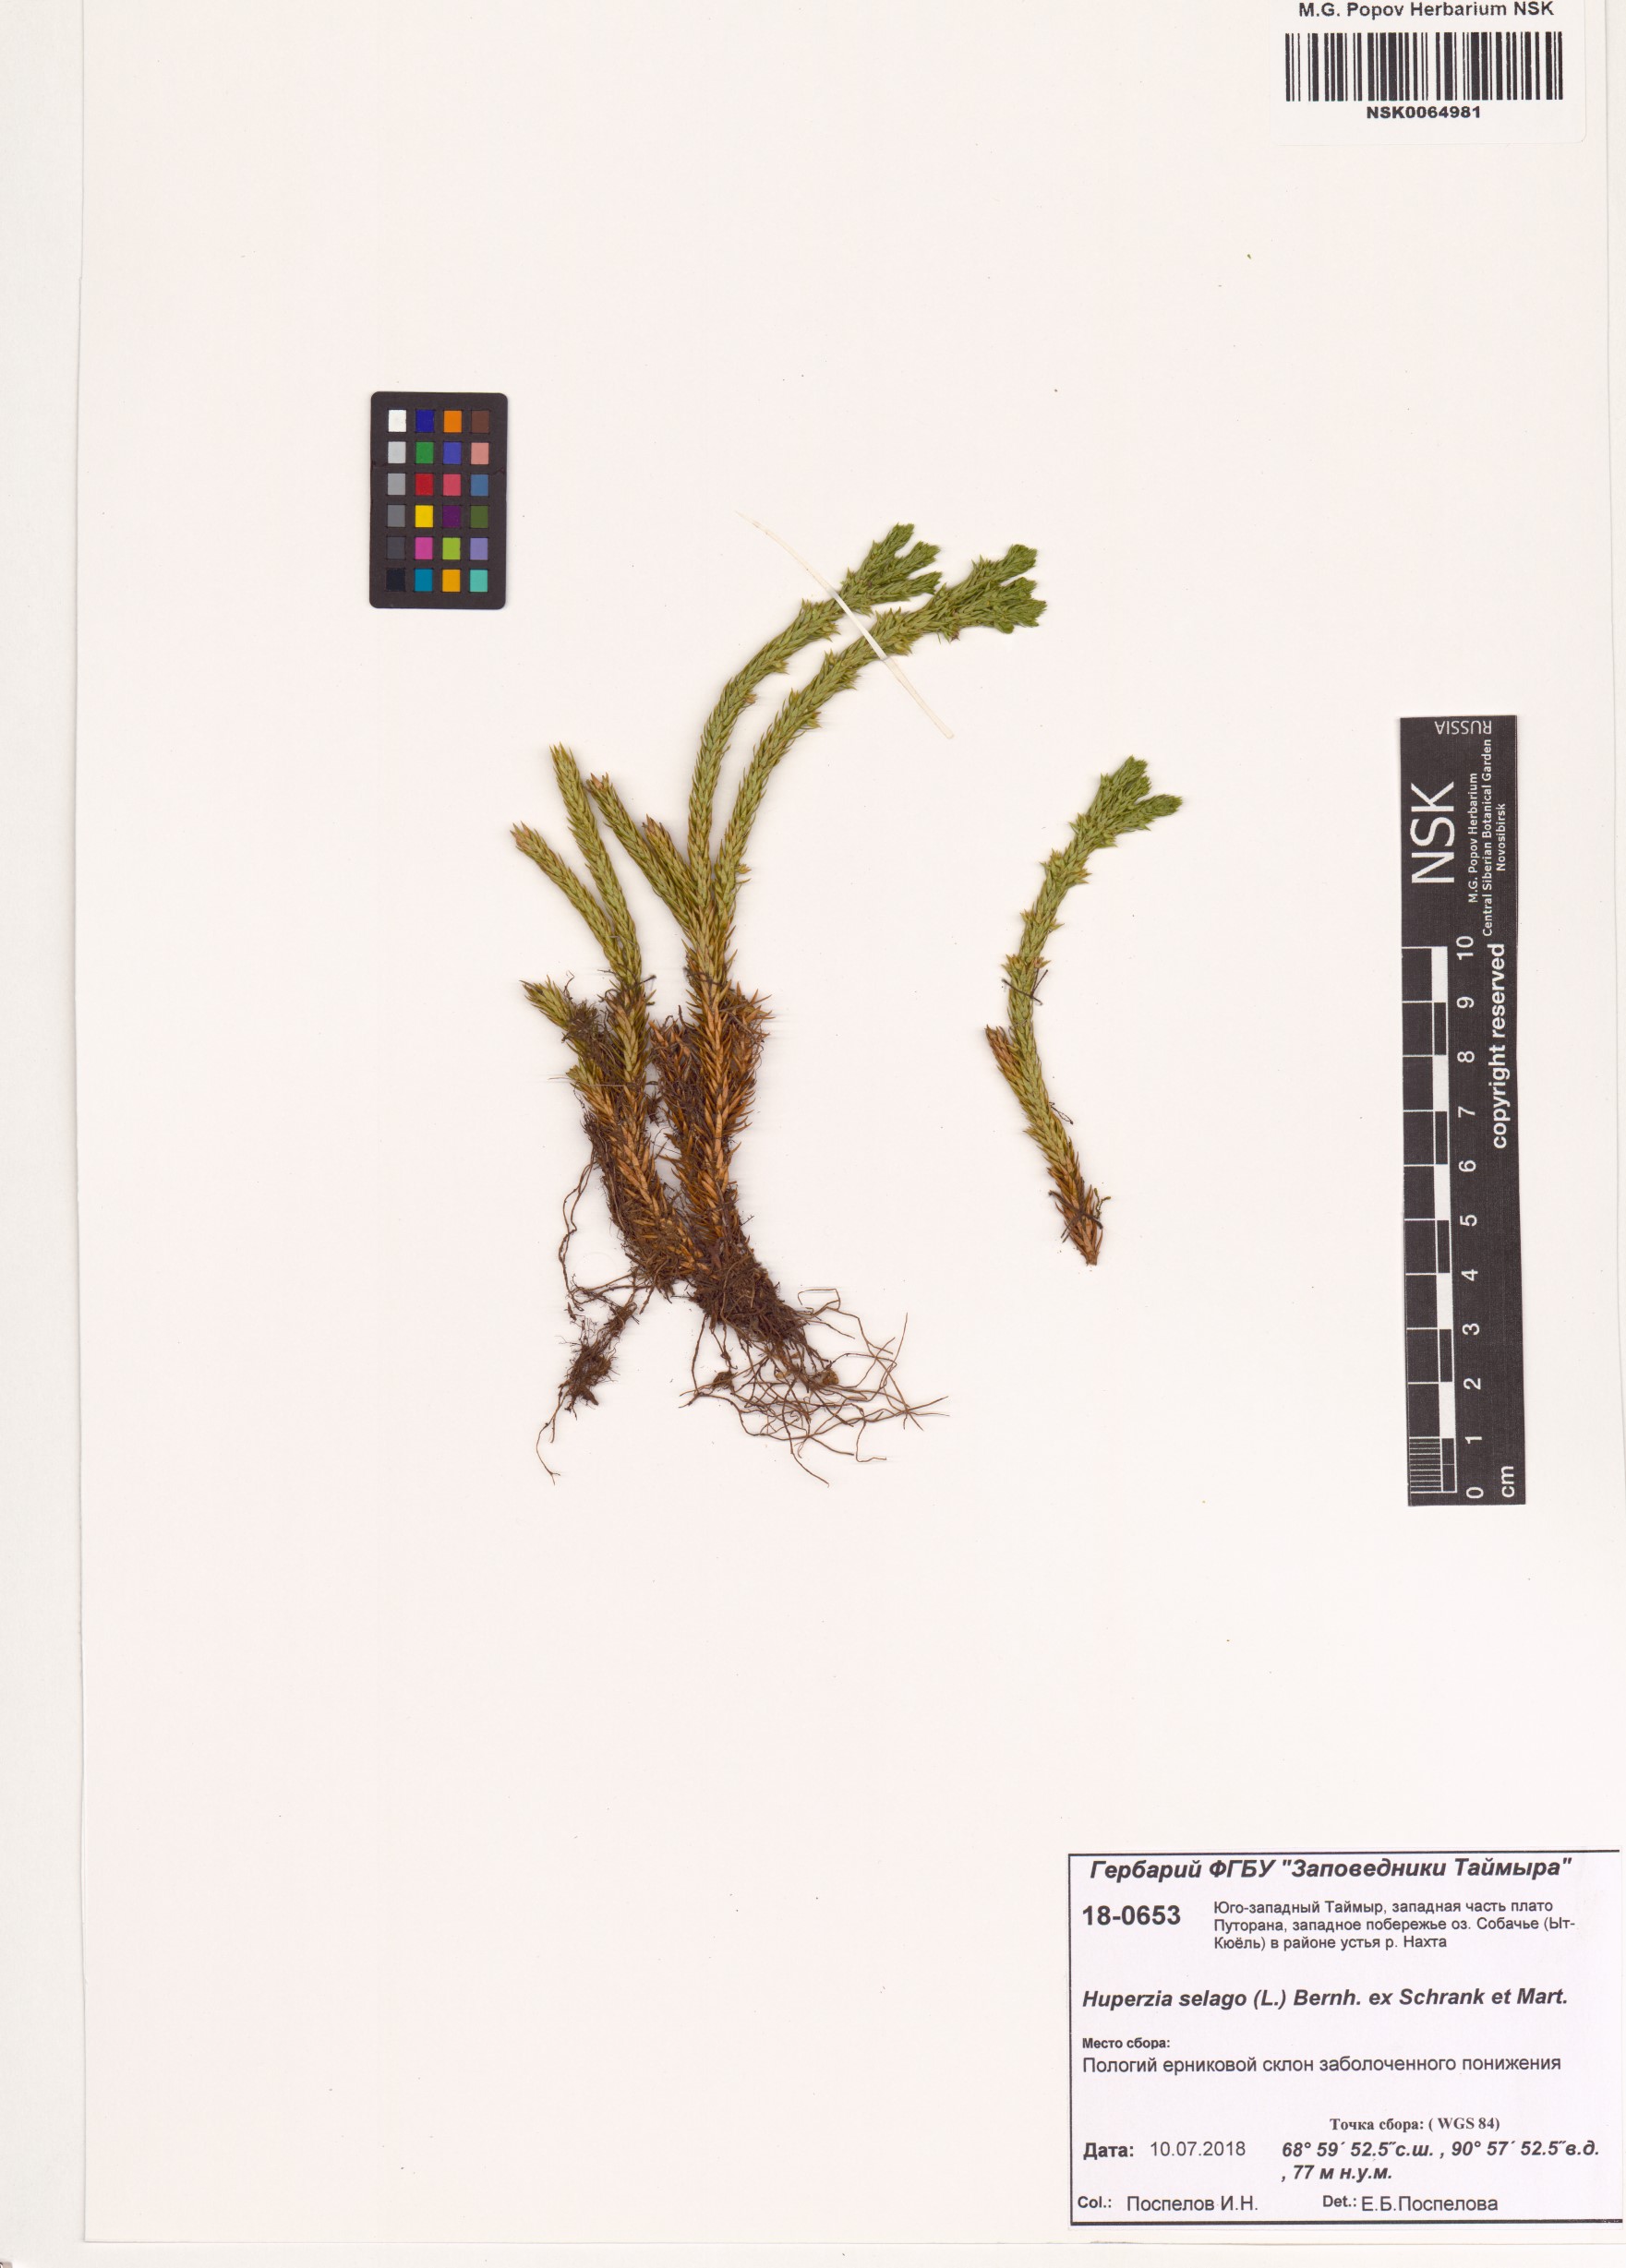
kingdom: Plantae
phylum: Tracheophyta
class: Lycopodiopsida
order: Lycopodiales
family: Lycopodiaceae
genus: Huperzia
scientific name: Huperzia selago
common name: Northern firmoss
